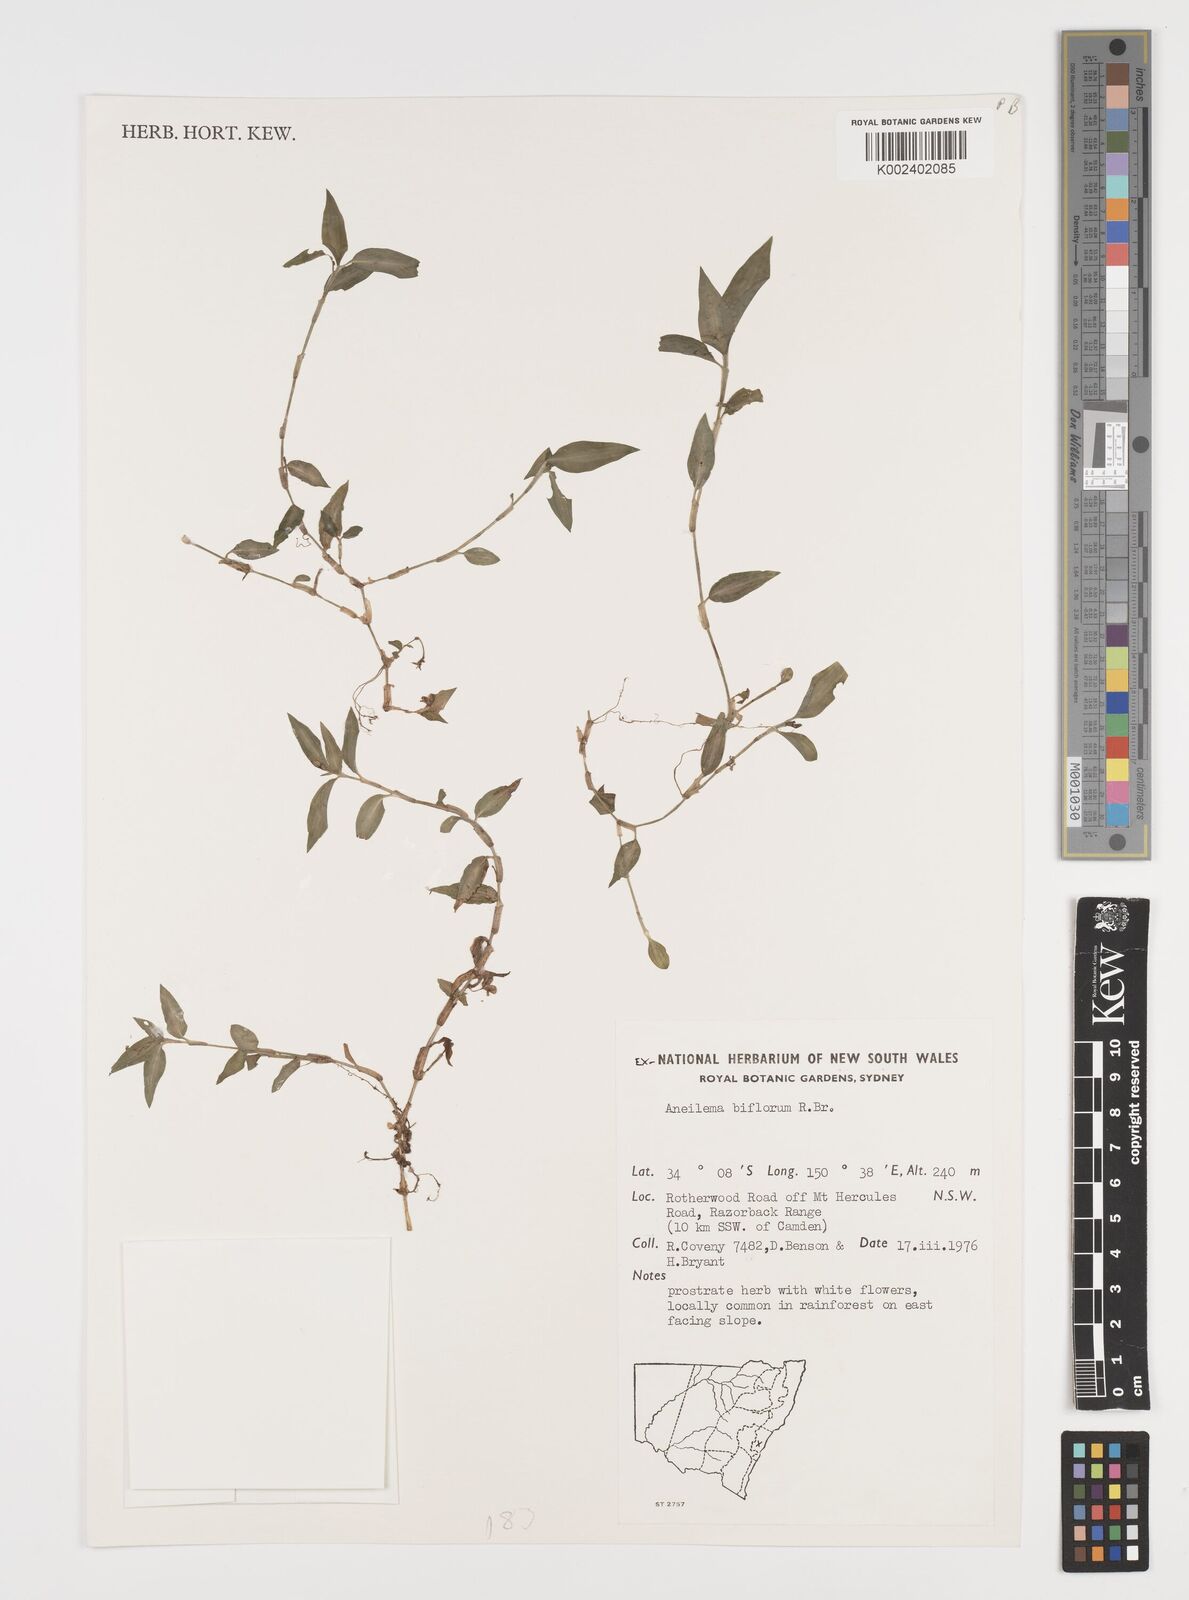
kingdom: Plantae
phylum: Tracheophyta
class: Liliopsida
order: Commelinales
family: Commelinaceae
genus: Aneilema
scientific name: Aneilema biflorum
